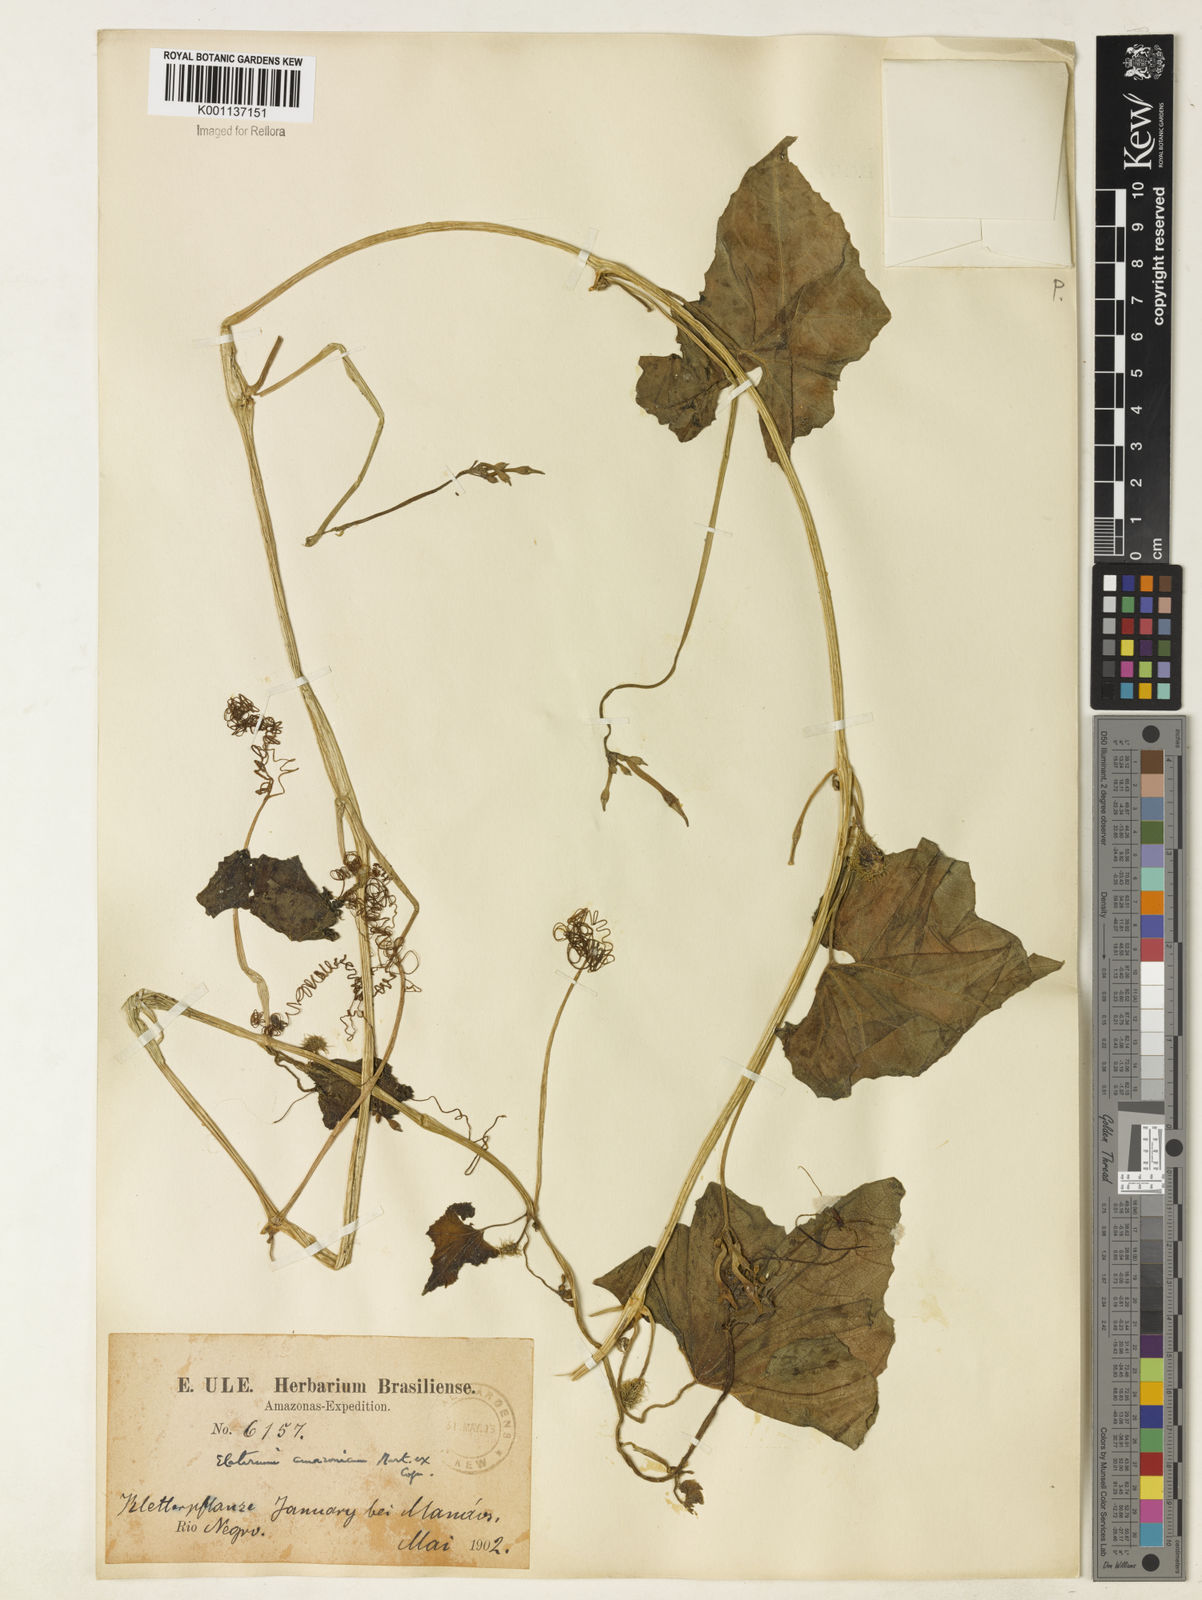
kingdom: Plantae
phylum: Tracheophyta
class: Magnoliopsida
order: Cucurbitales
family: Cucurbitaceae
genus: Cyclanthera
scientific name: Cyclanthera carthagenensis
